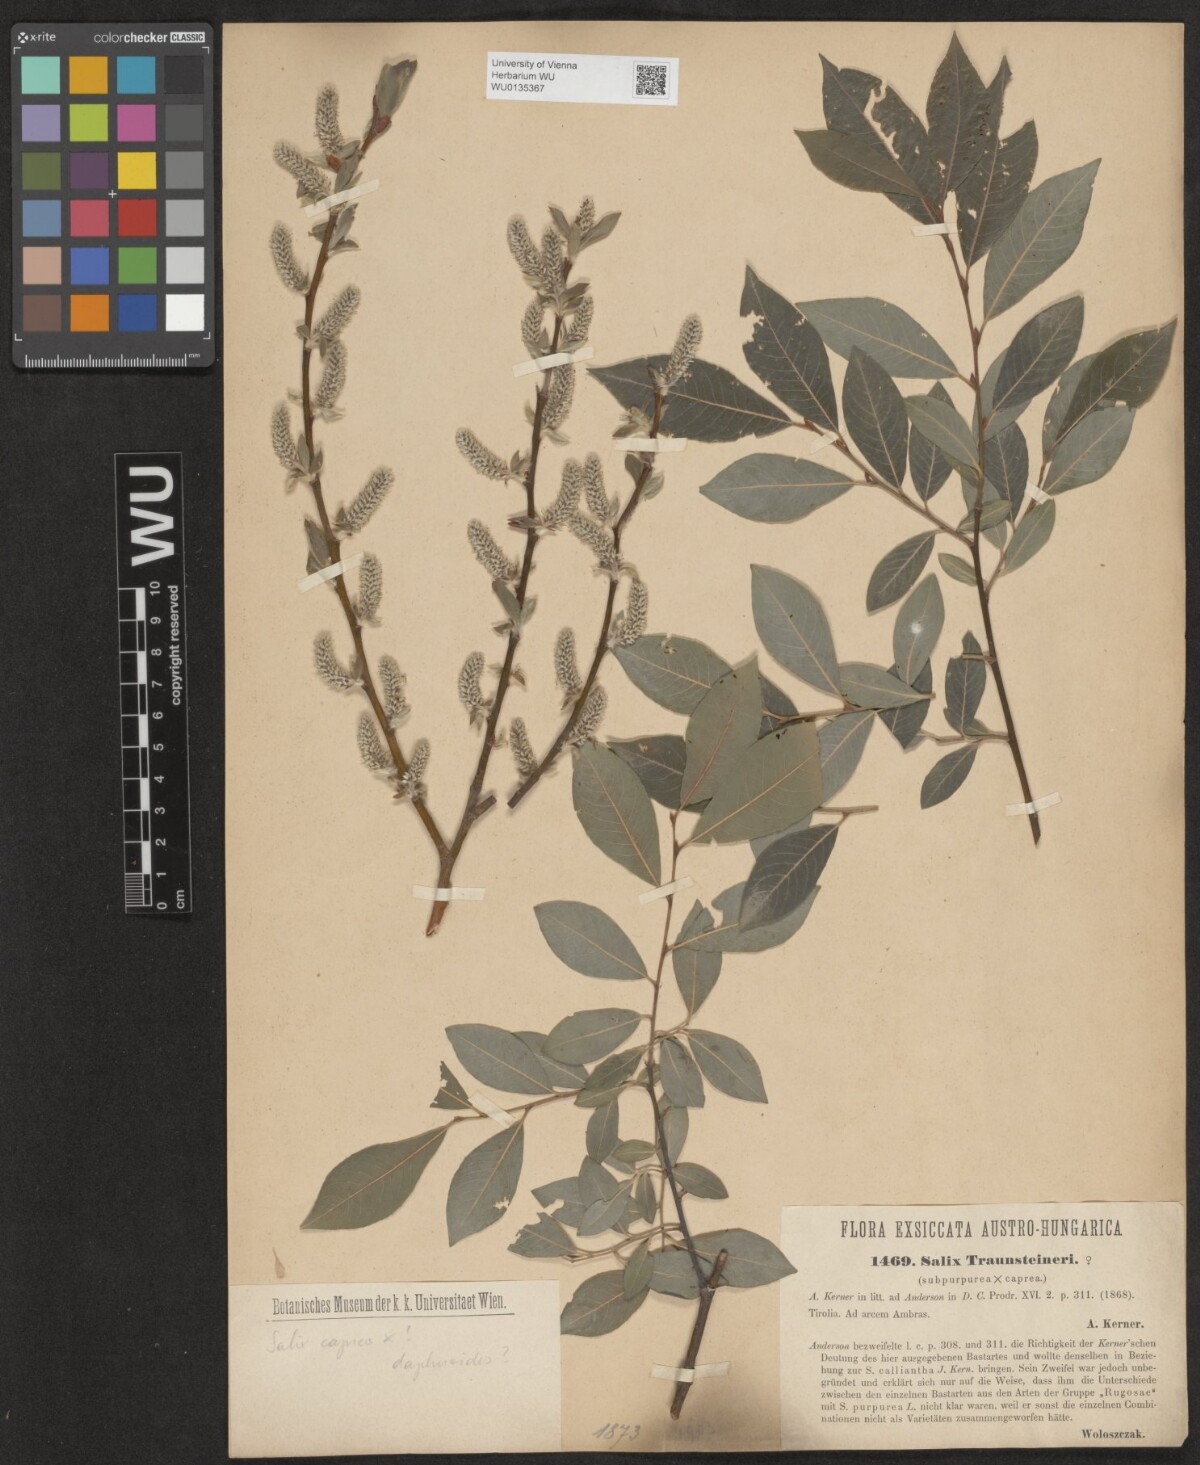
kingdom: Plantae
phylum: Tracheophyta
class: Magnoliopsida
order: Malpighiales
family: Salicaceae
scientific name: Salicaceae
